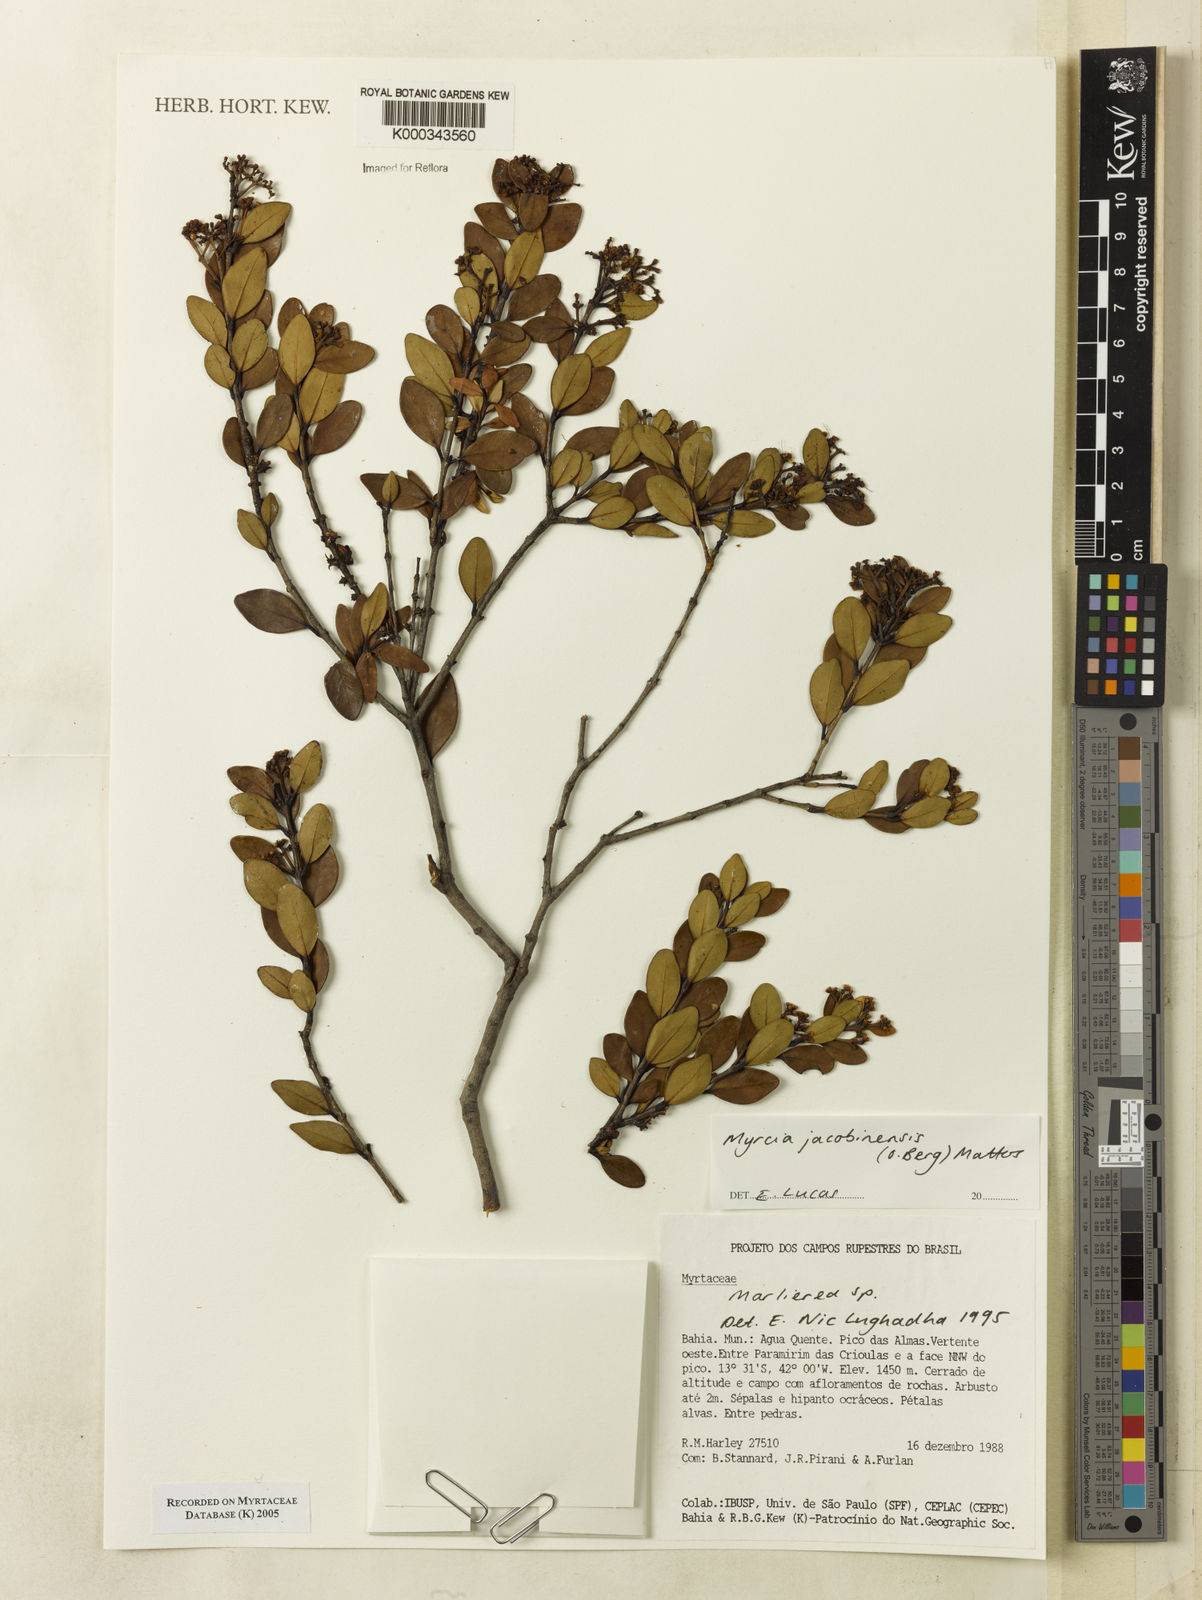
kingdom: Plantae
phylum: Tracheophyta
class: Magnoliopsida
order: Myrtales
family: Myrtaceae
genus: Myrcia
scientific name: Myrcia jacobinensis
